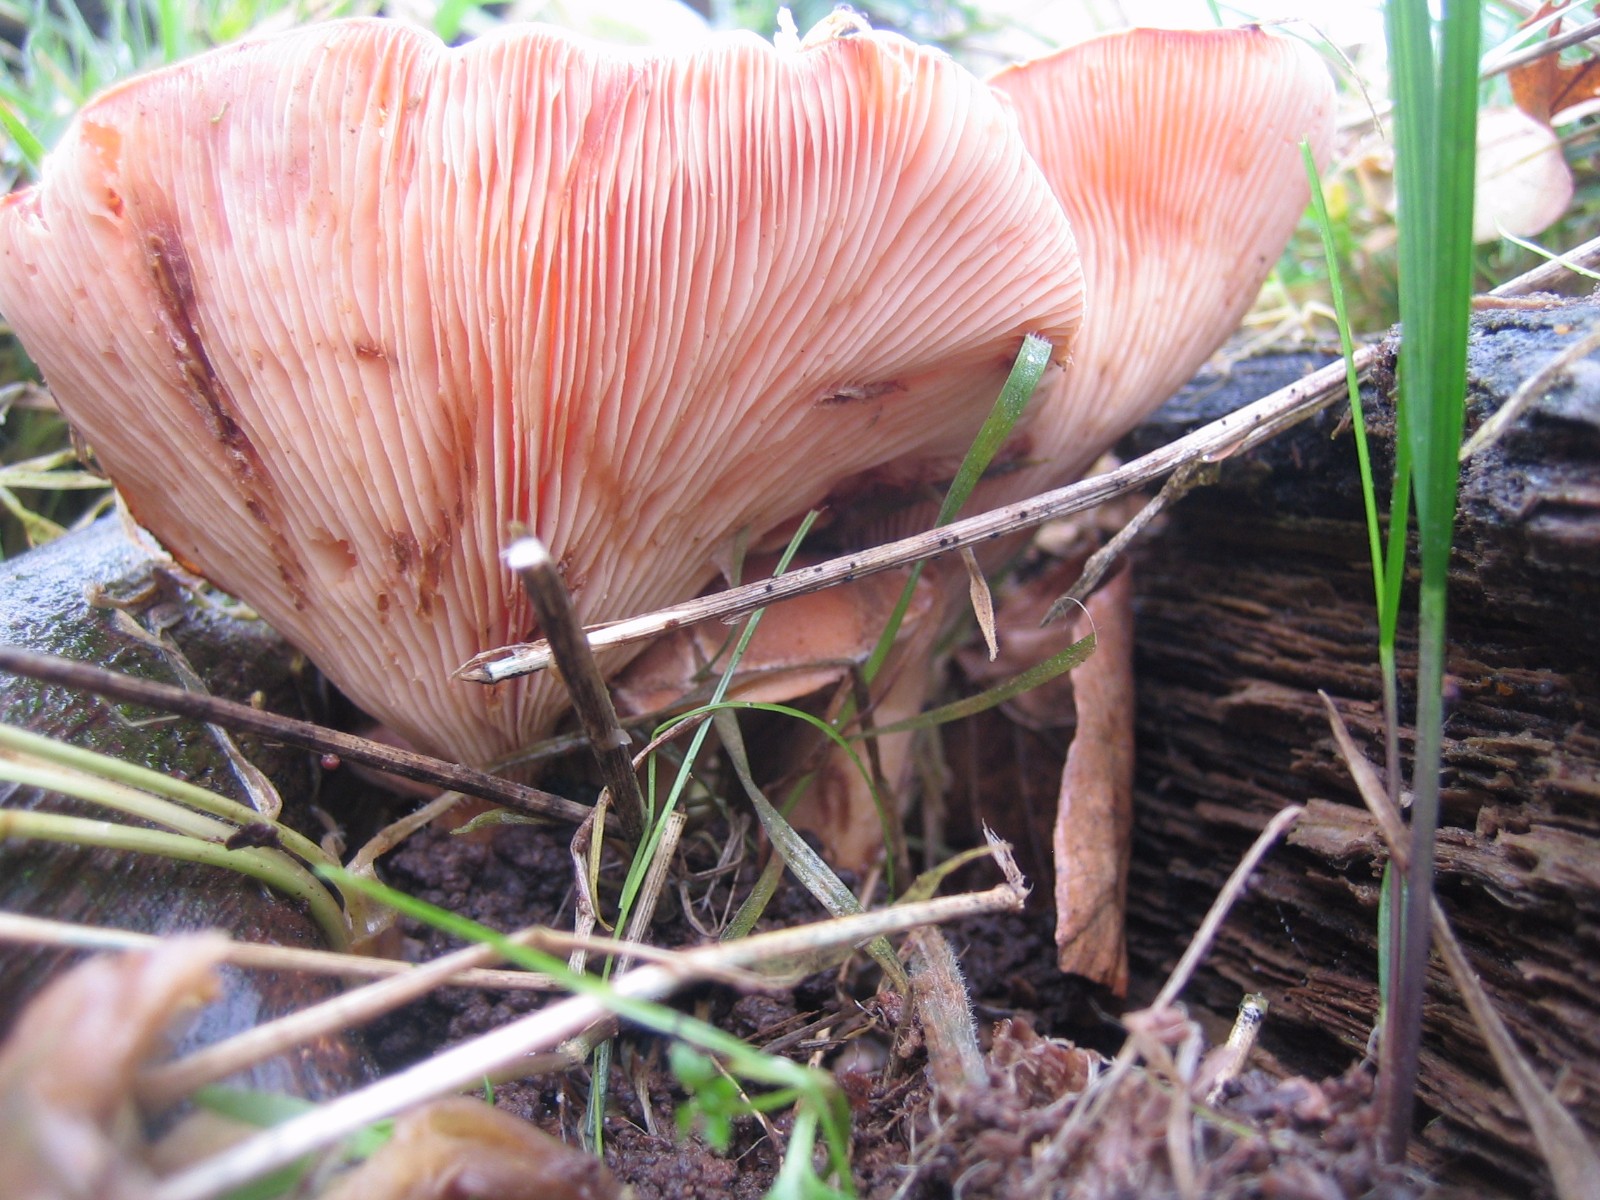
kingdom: Fungi
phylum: Basidiomycota
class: Agaricomycetes
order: Agaricales
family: Tricholomataceae
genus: Paralepista
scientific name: Paralepista flaccida
